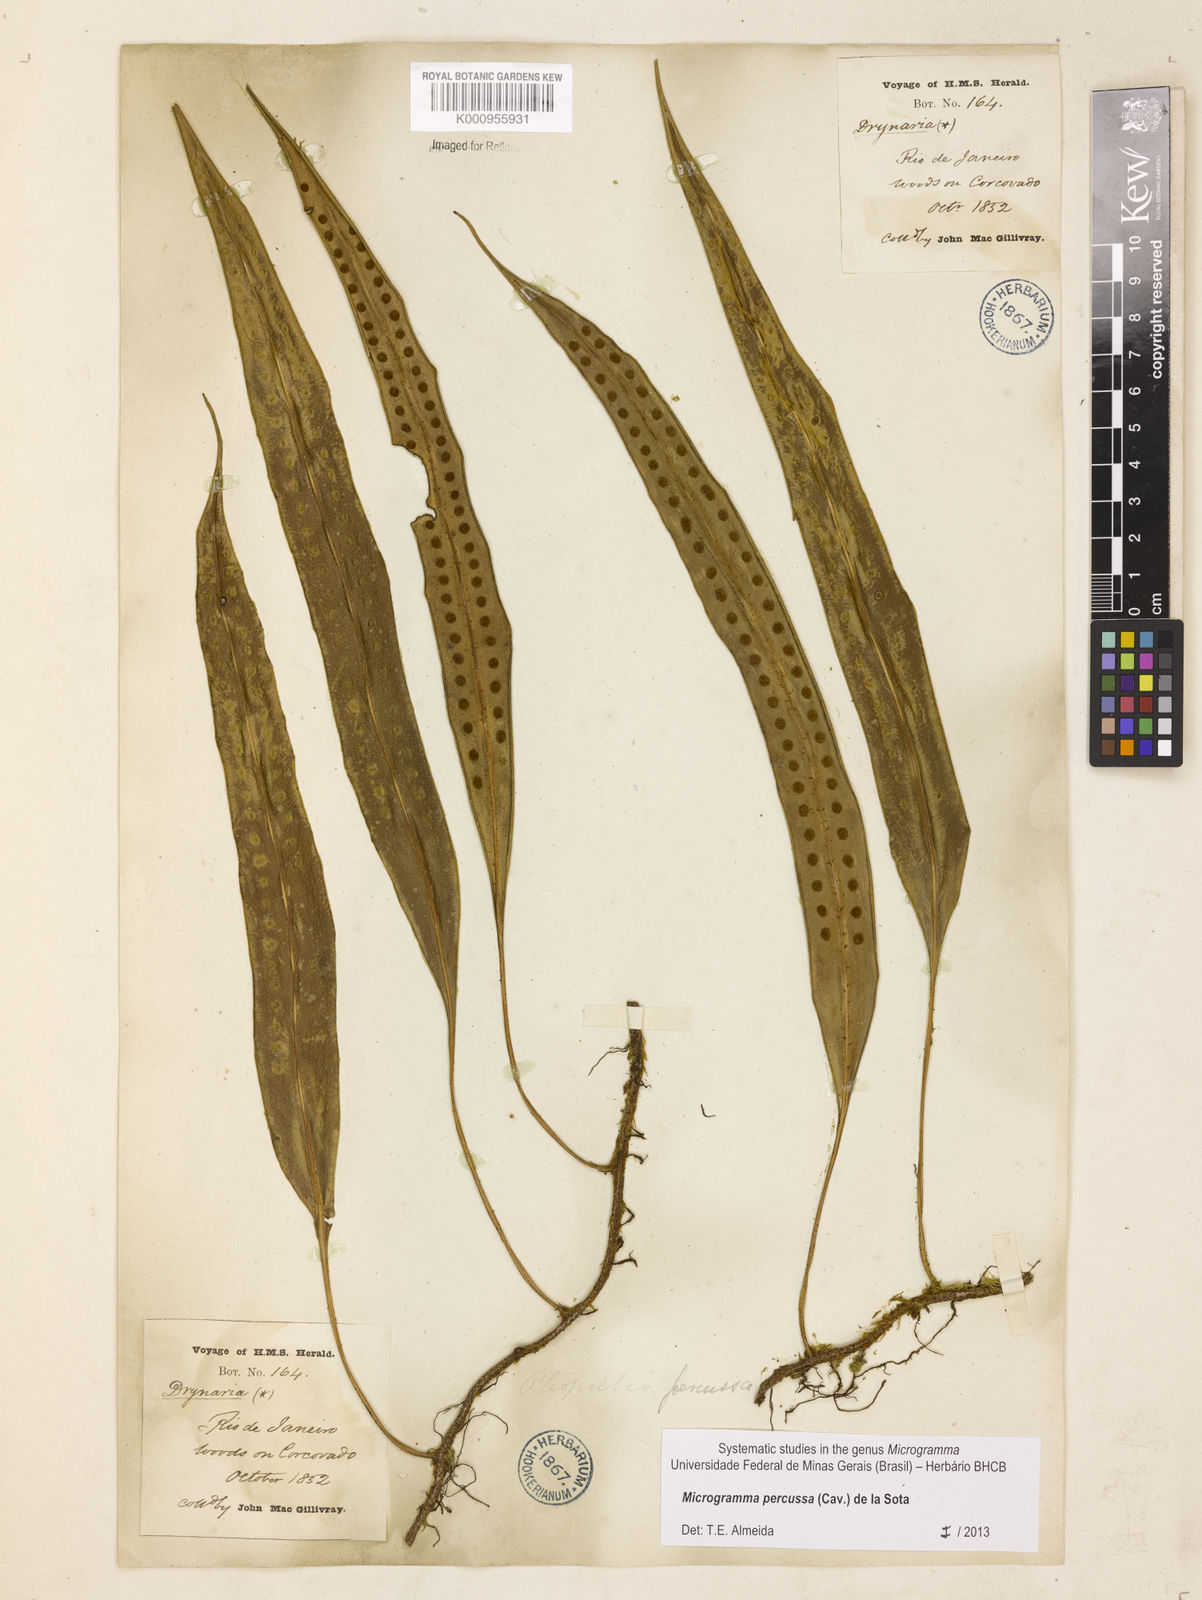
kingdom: Plantae
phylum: Tracheophyta
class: Polypodiopsida
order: Polypodiales
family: Polypodiaceae
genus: Microgramma
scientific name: Microgramma percussa
